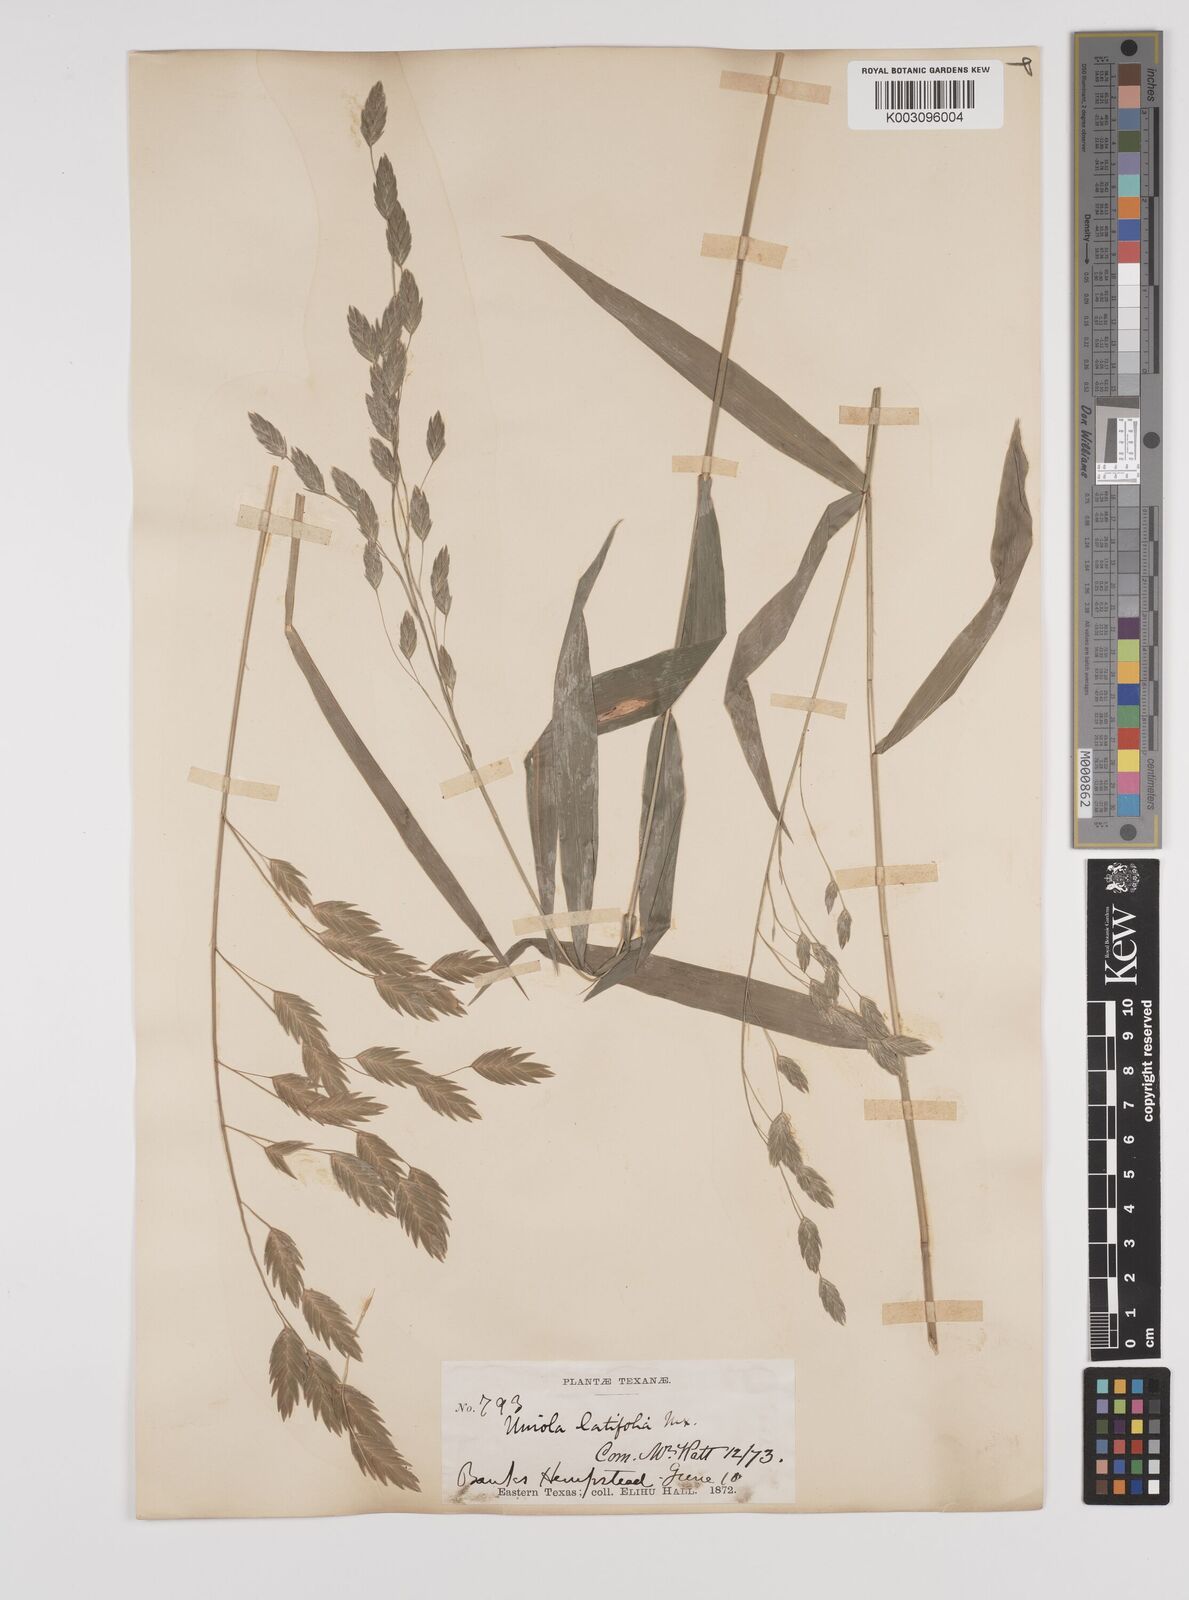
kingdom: Plantae
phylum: Tracheophyta
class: Liliopsida
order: Poales
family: Poaceae
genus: Chasmanthium
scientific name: Chasmanthium latifolium
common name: Broad-leaved chasmanthium
